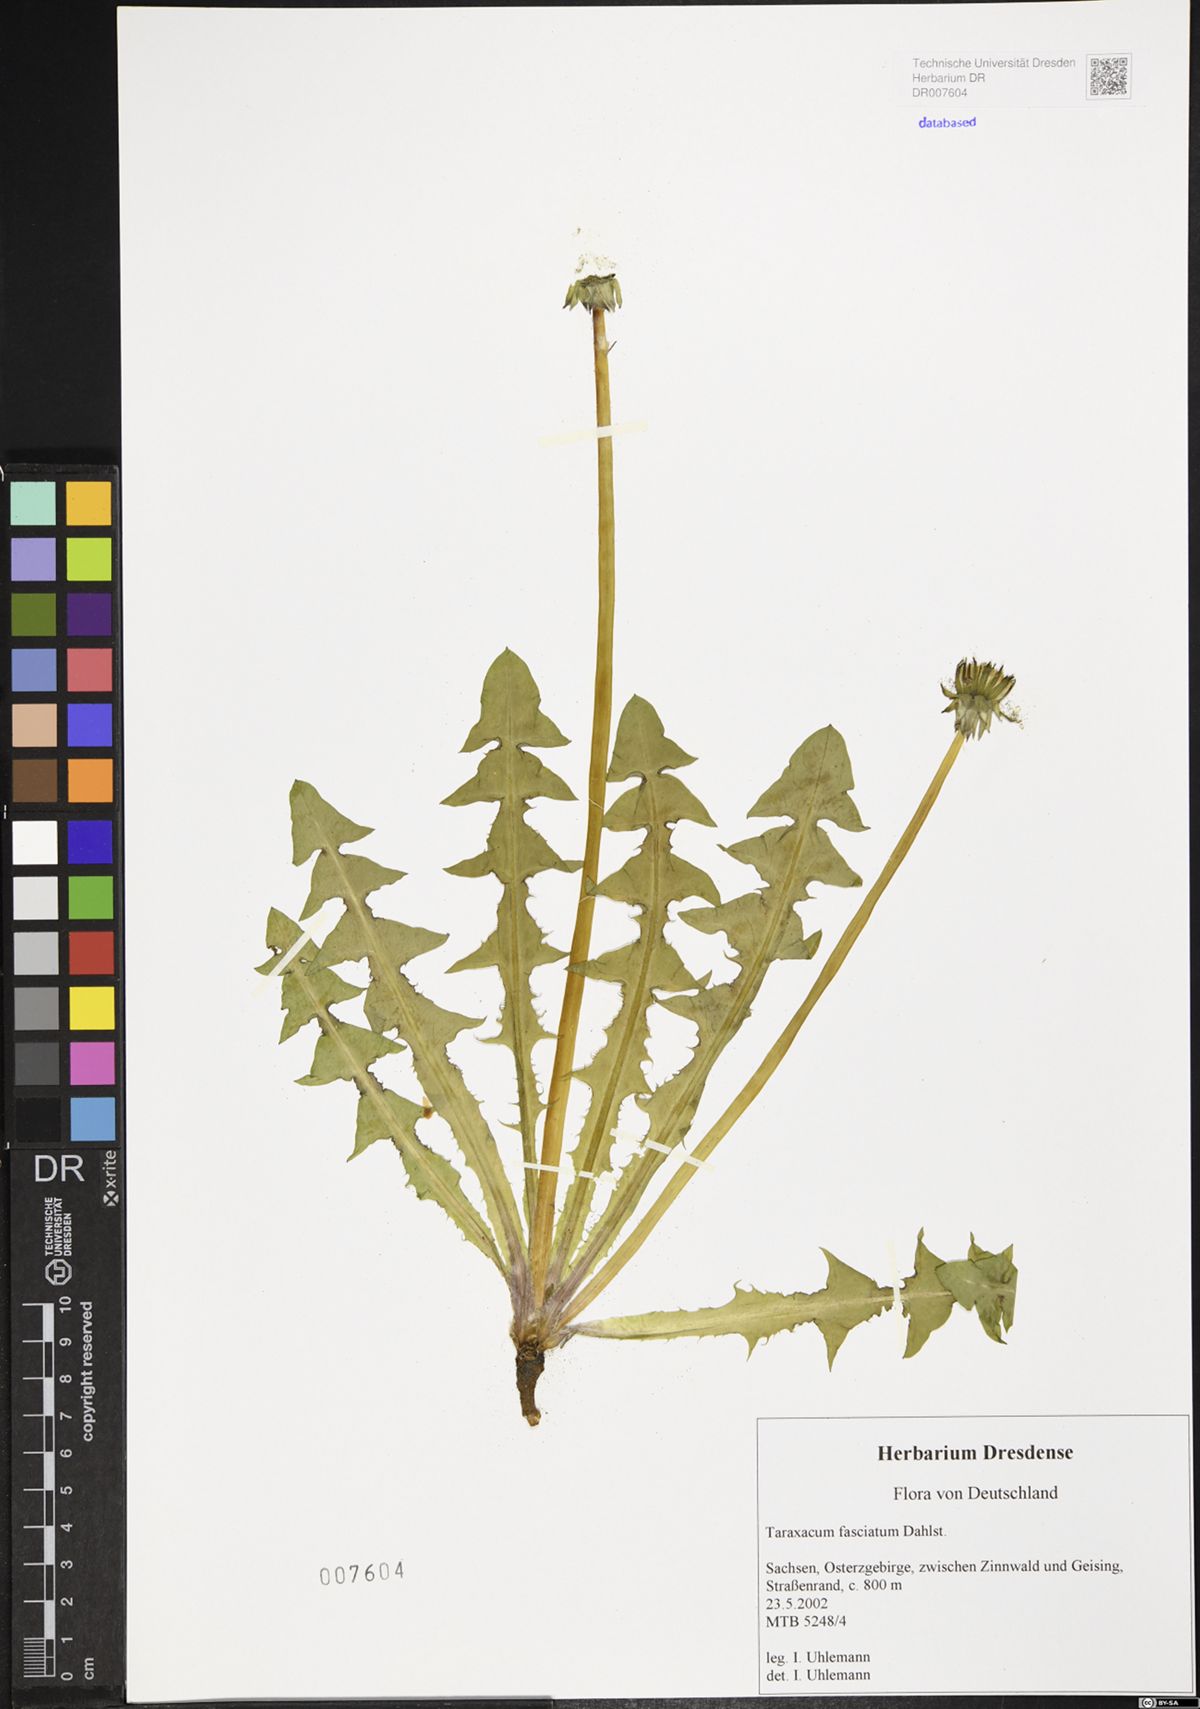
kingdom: Plantae
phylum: Tracheophyta
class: Magnoliopsida
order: Asterales
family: Asteraceae
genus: Taraxacum
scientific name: Taraxacum fasciatum
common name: Dense-bracted dandelion
